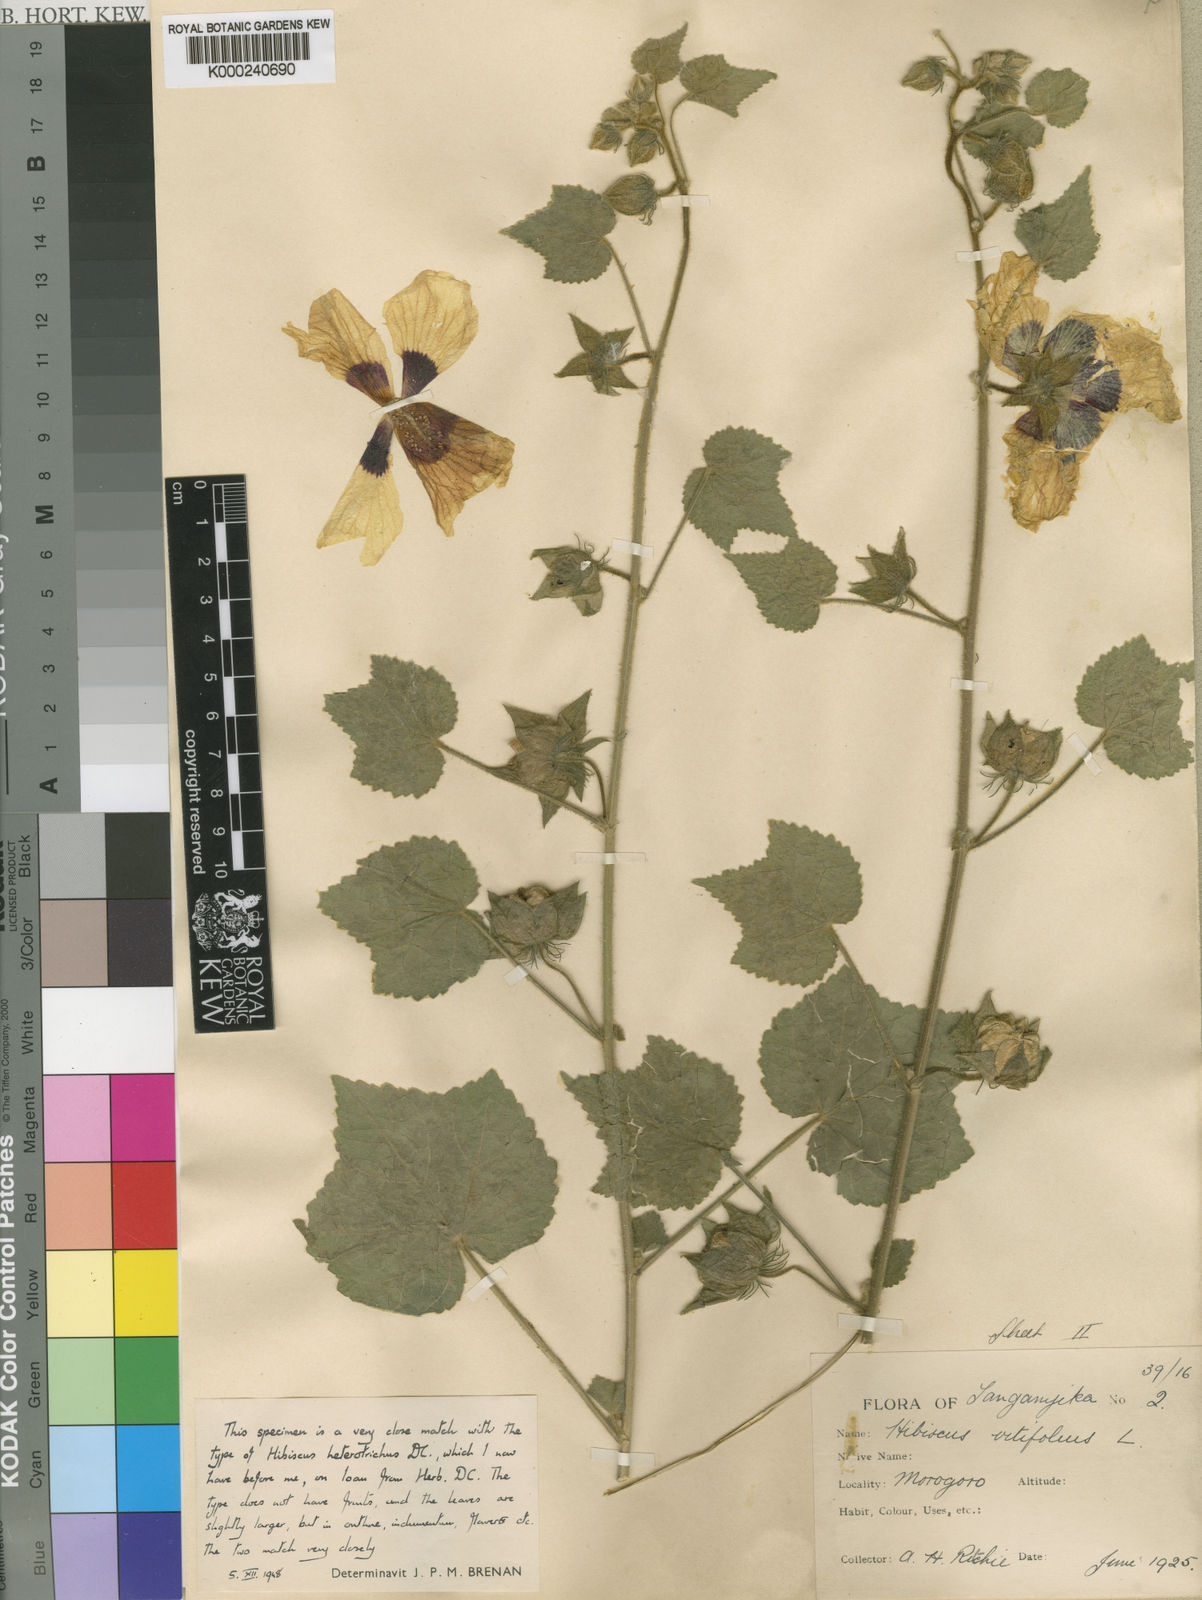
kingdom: Plantae
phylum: Tracheophyta
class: Magnoliopsida
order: Malvales
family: Malvaceae
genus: Hibiscus
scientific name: Hibiscus vitifolius
